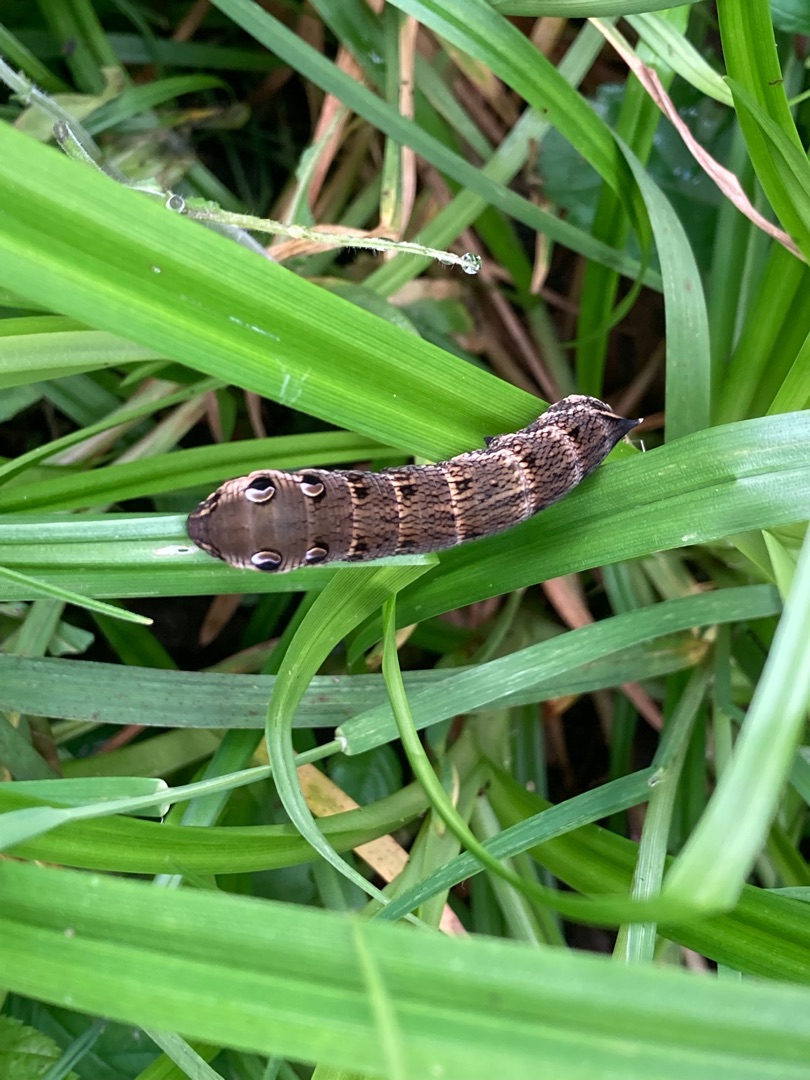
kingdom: Animalia
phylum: Arthropoda
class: Insecta
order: Lepidoptera
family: Sphingidae
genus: Deilephila
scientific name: Deilephila elpenor
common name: Dueurtsværmer
